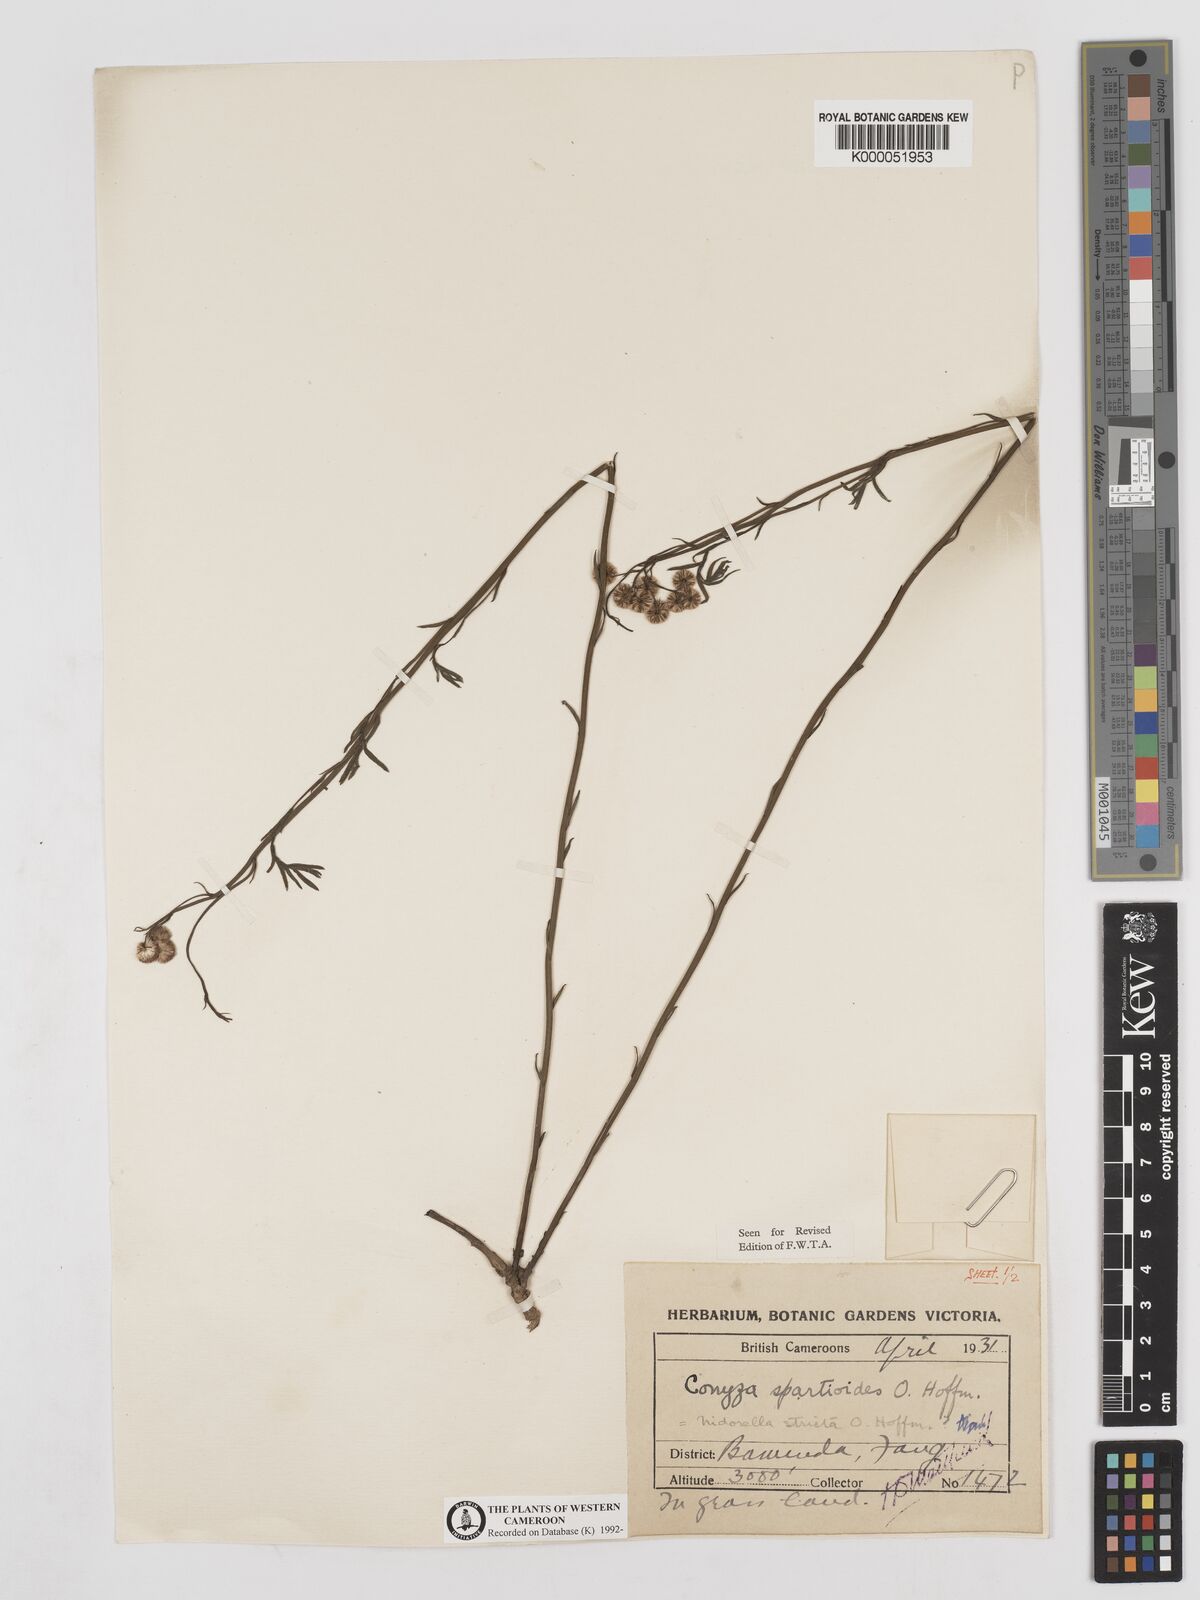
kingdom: Plantae
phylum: Tracheophyta
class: Magnoliopsida
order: Asterales
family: Asteraceae
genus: Nidorella
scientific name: Nidorella spartioides
